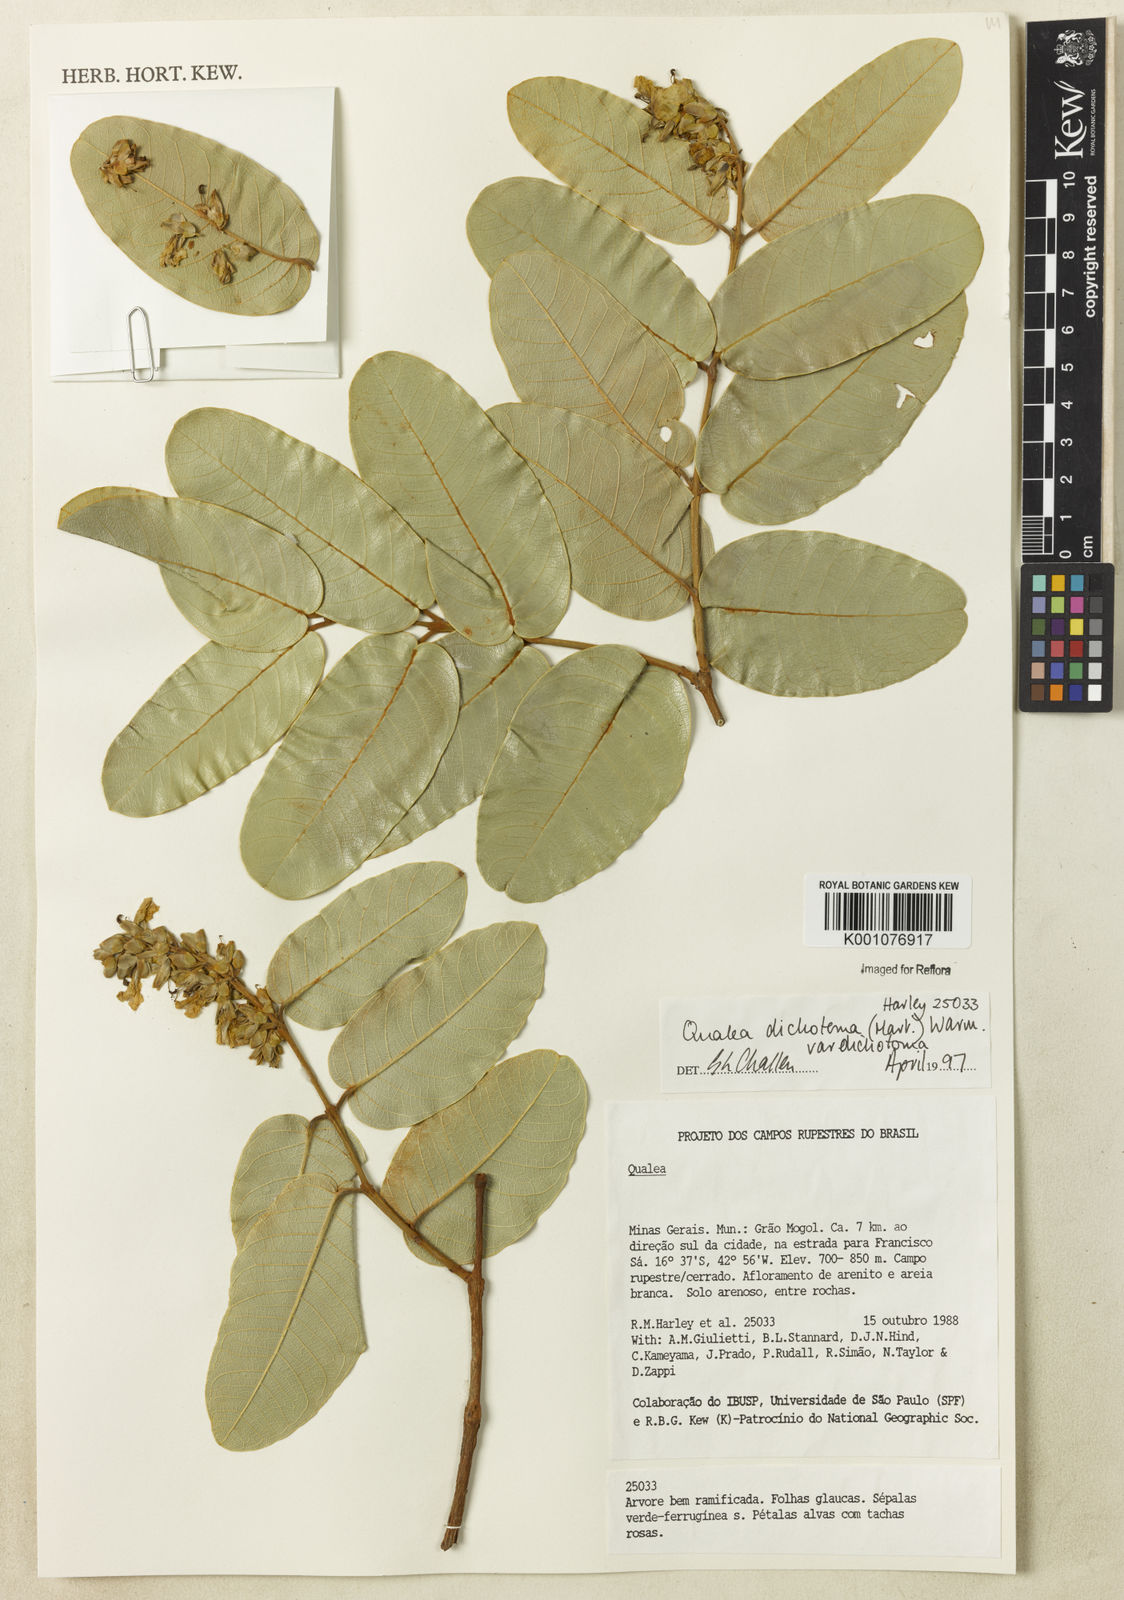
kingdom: Plantae
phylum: Tracheophyta
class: Magnoliopsida
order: Myrtales
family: Vochysiaceae
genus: Qualea
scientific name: Qualea
